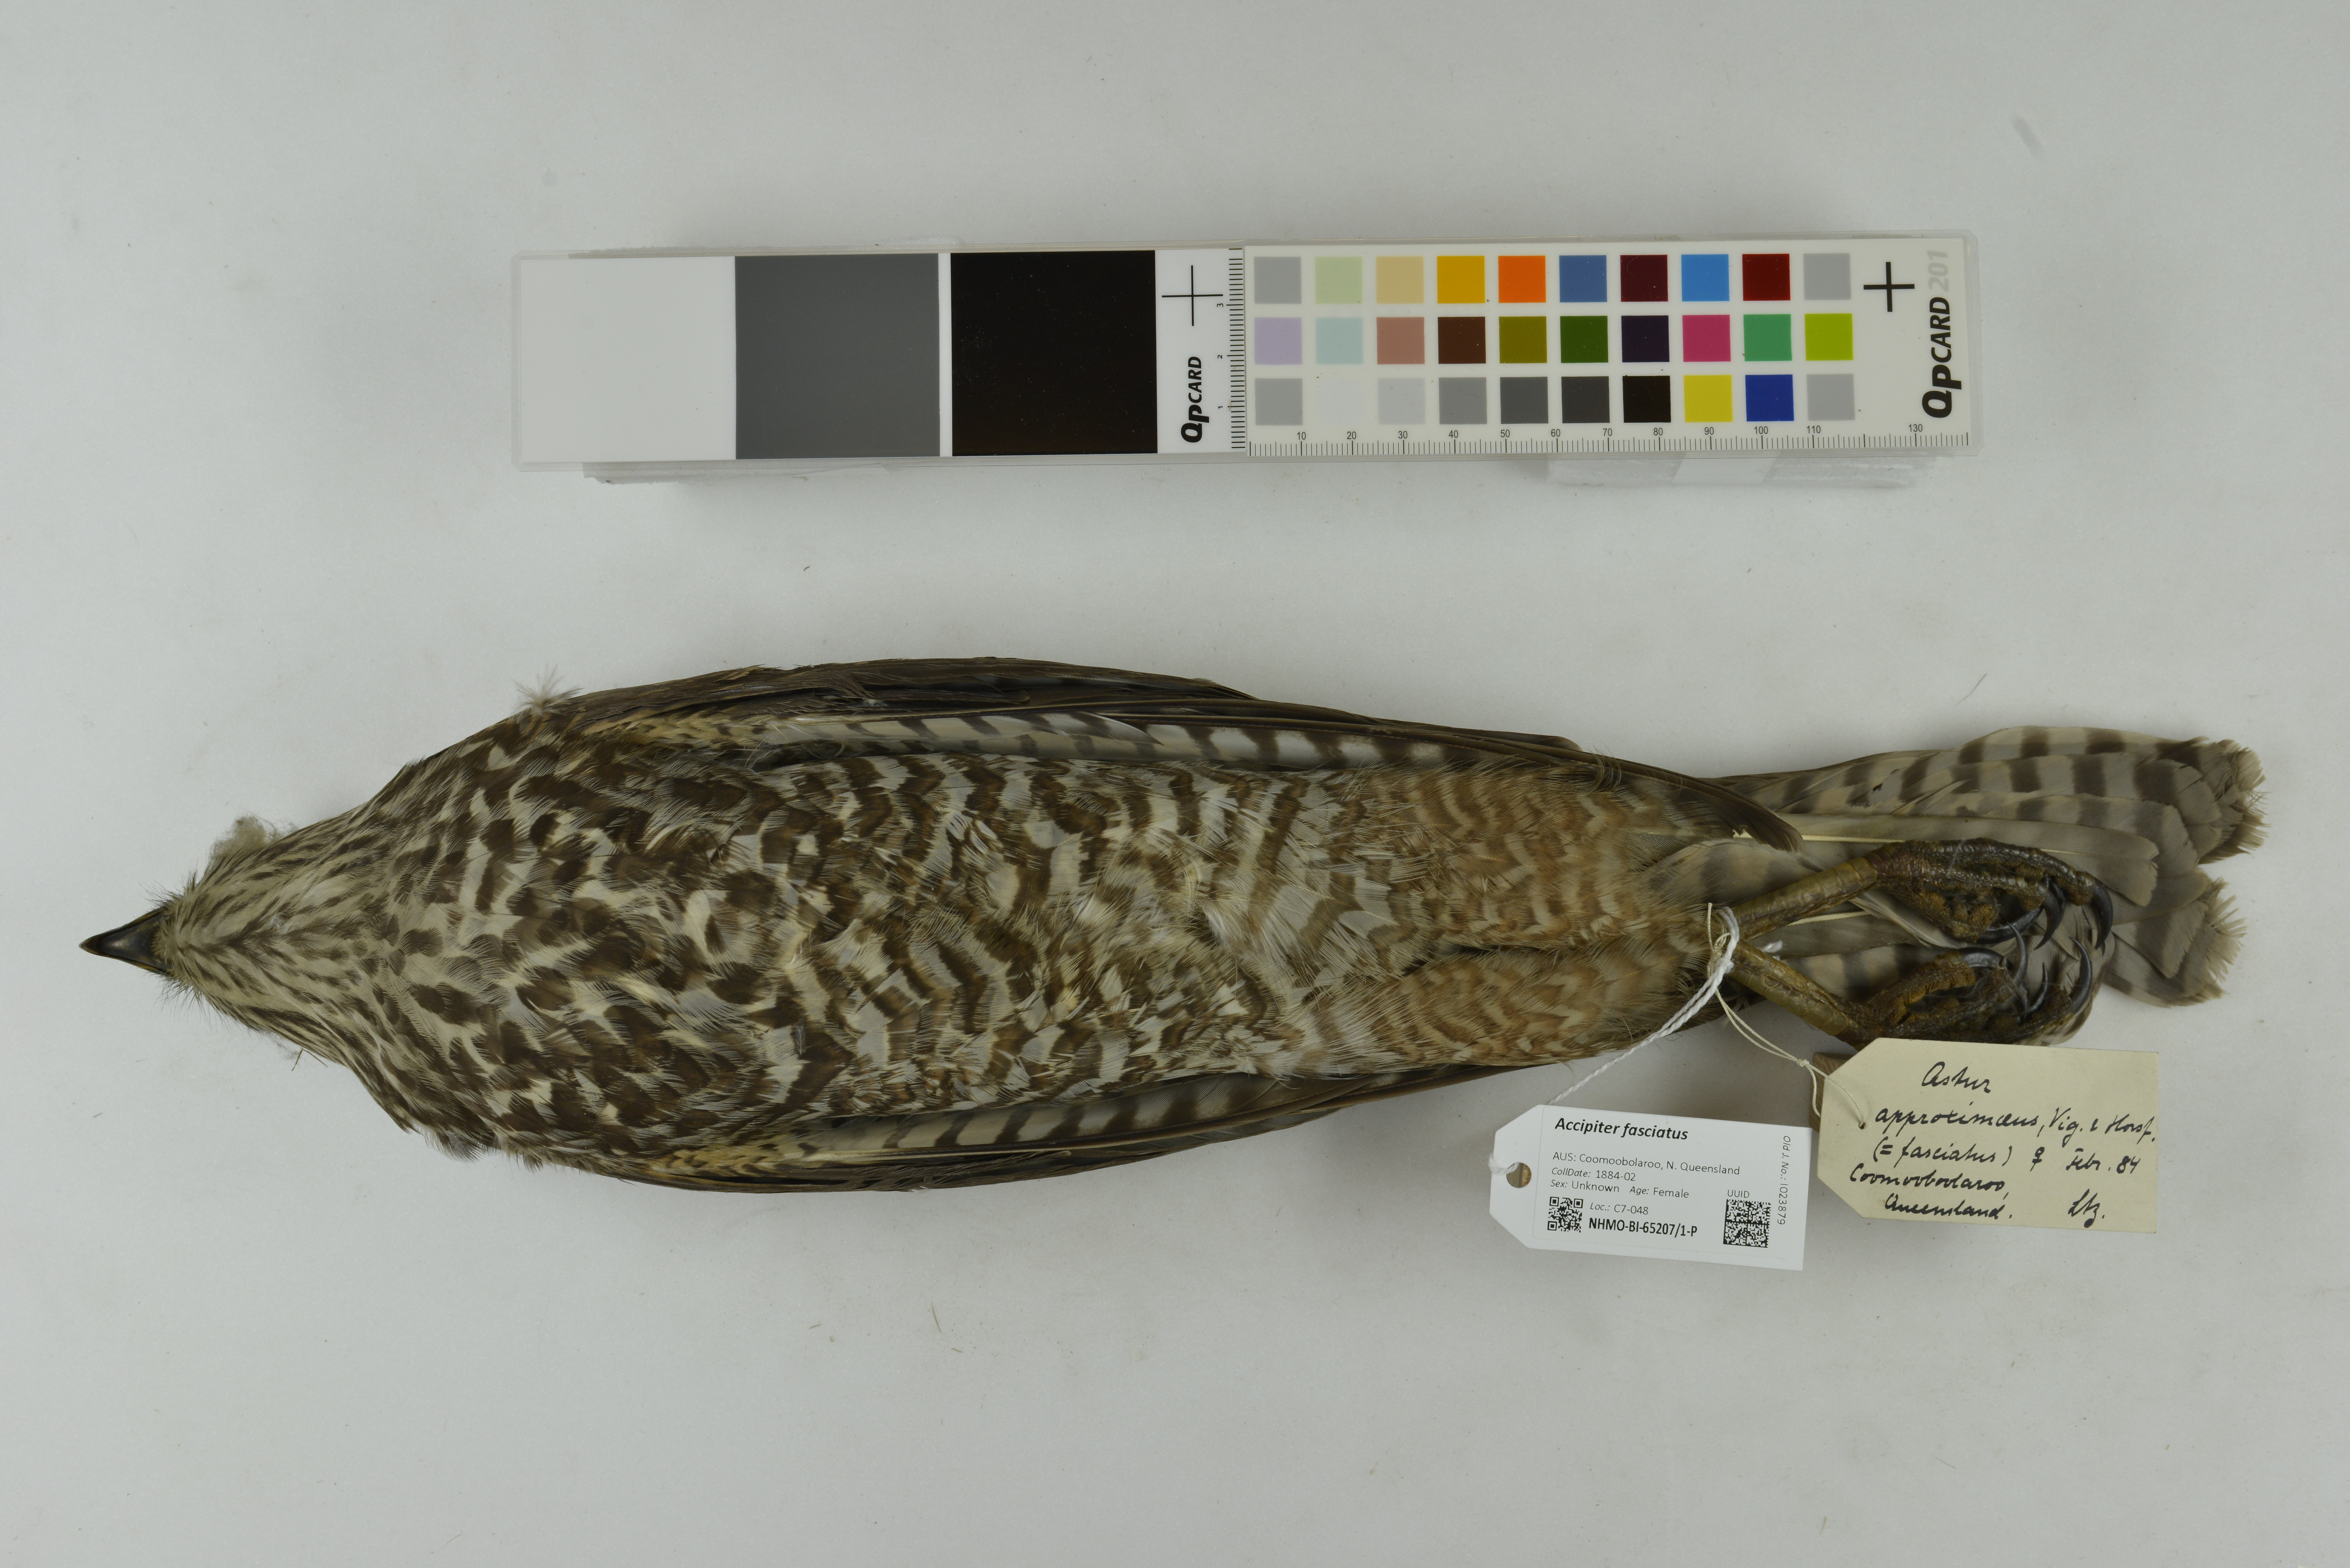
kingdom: Animalia
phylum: Chordata
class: Aves
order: Accipitriformes
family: Accipitridae
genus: Accipiter
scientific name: Accipiter fasciatus
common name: Brown goshawk
